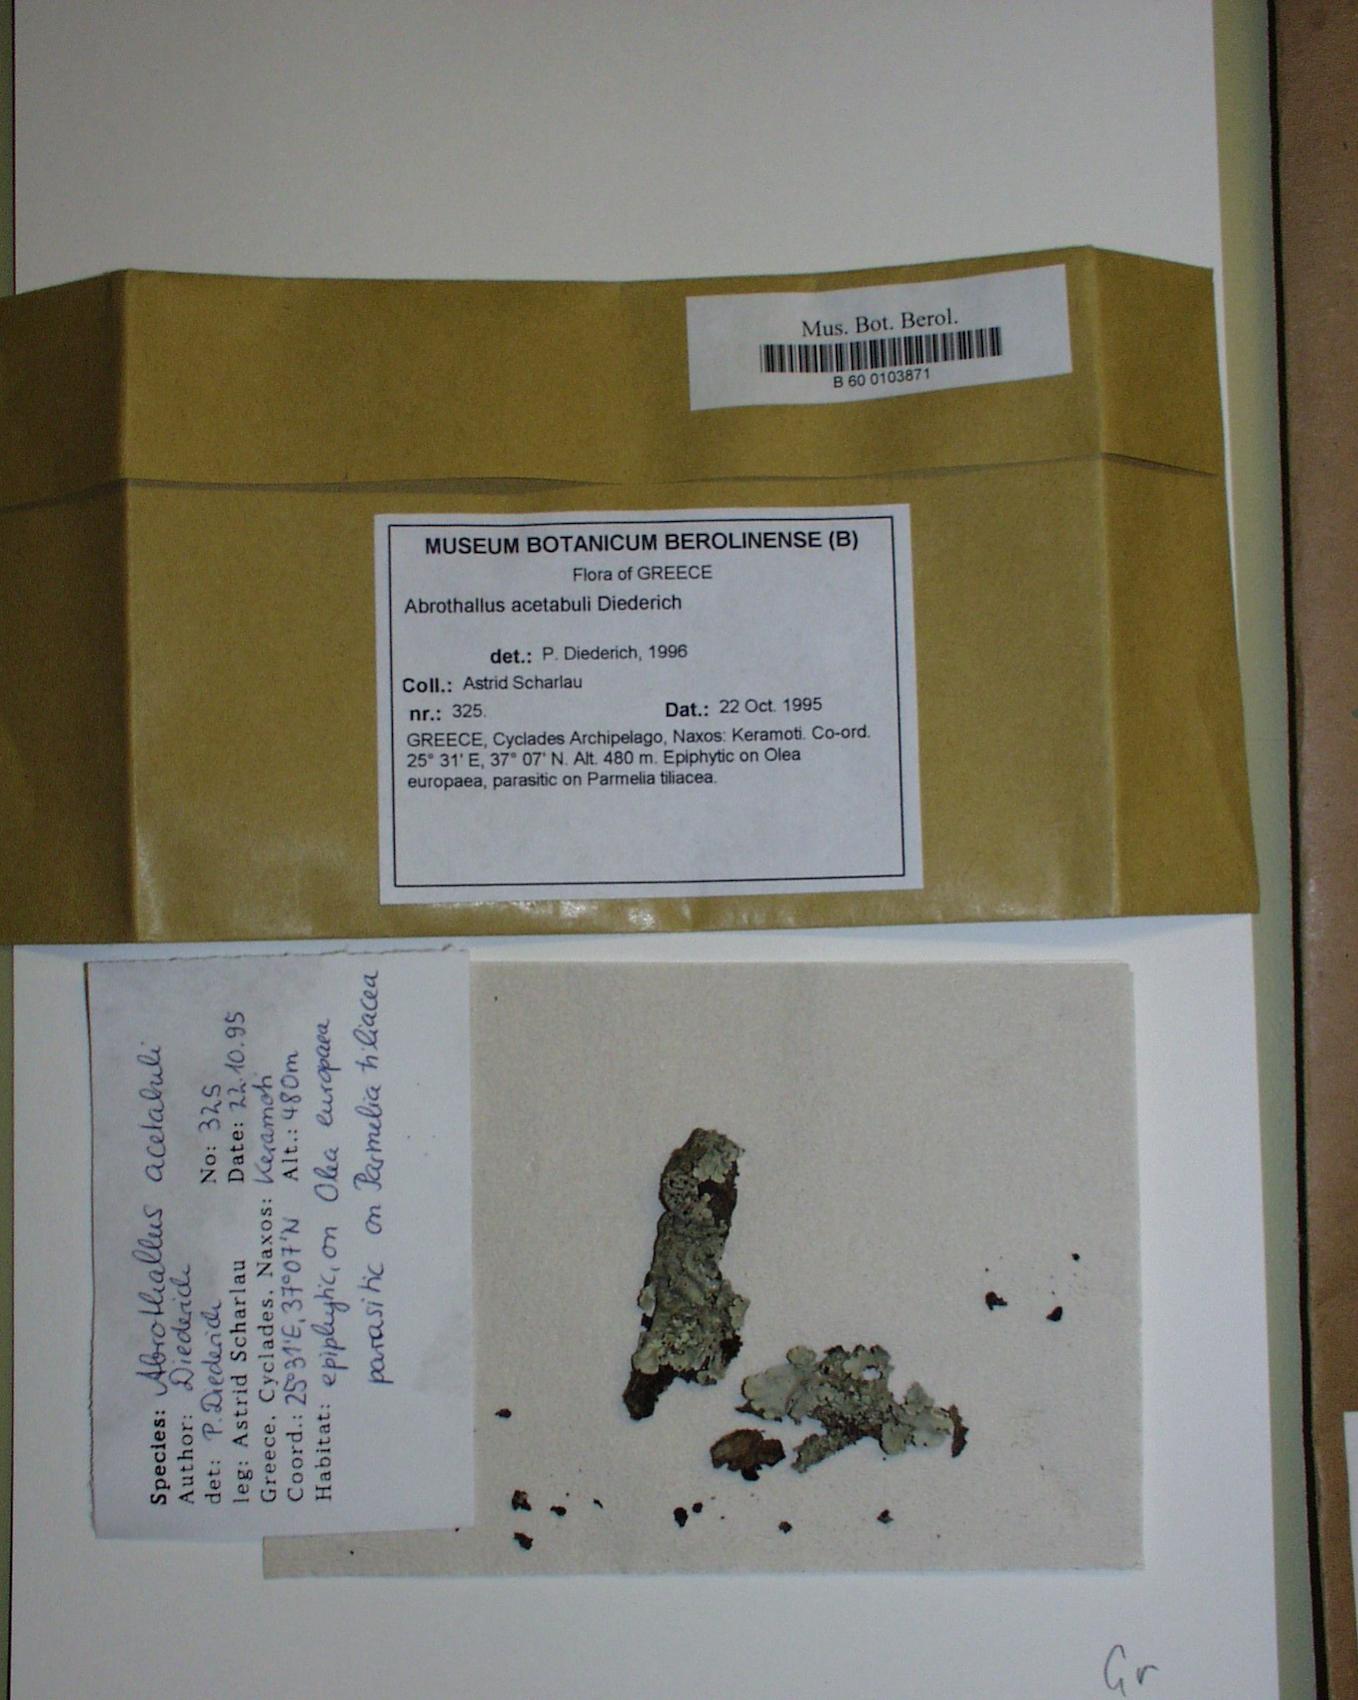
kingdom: Fungi
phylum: Ascomycota
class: Dothideomycetes
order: Abrothallales
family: Abrothallaceae
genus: Abrothallus
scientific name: Abrothallus acetabuli
